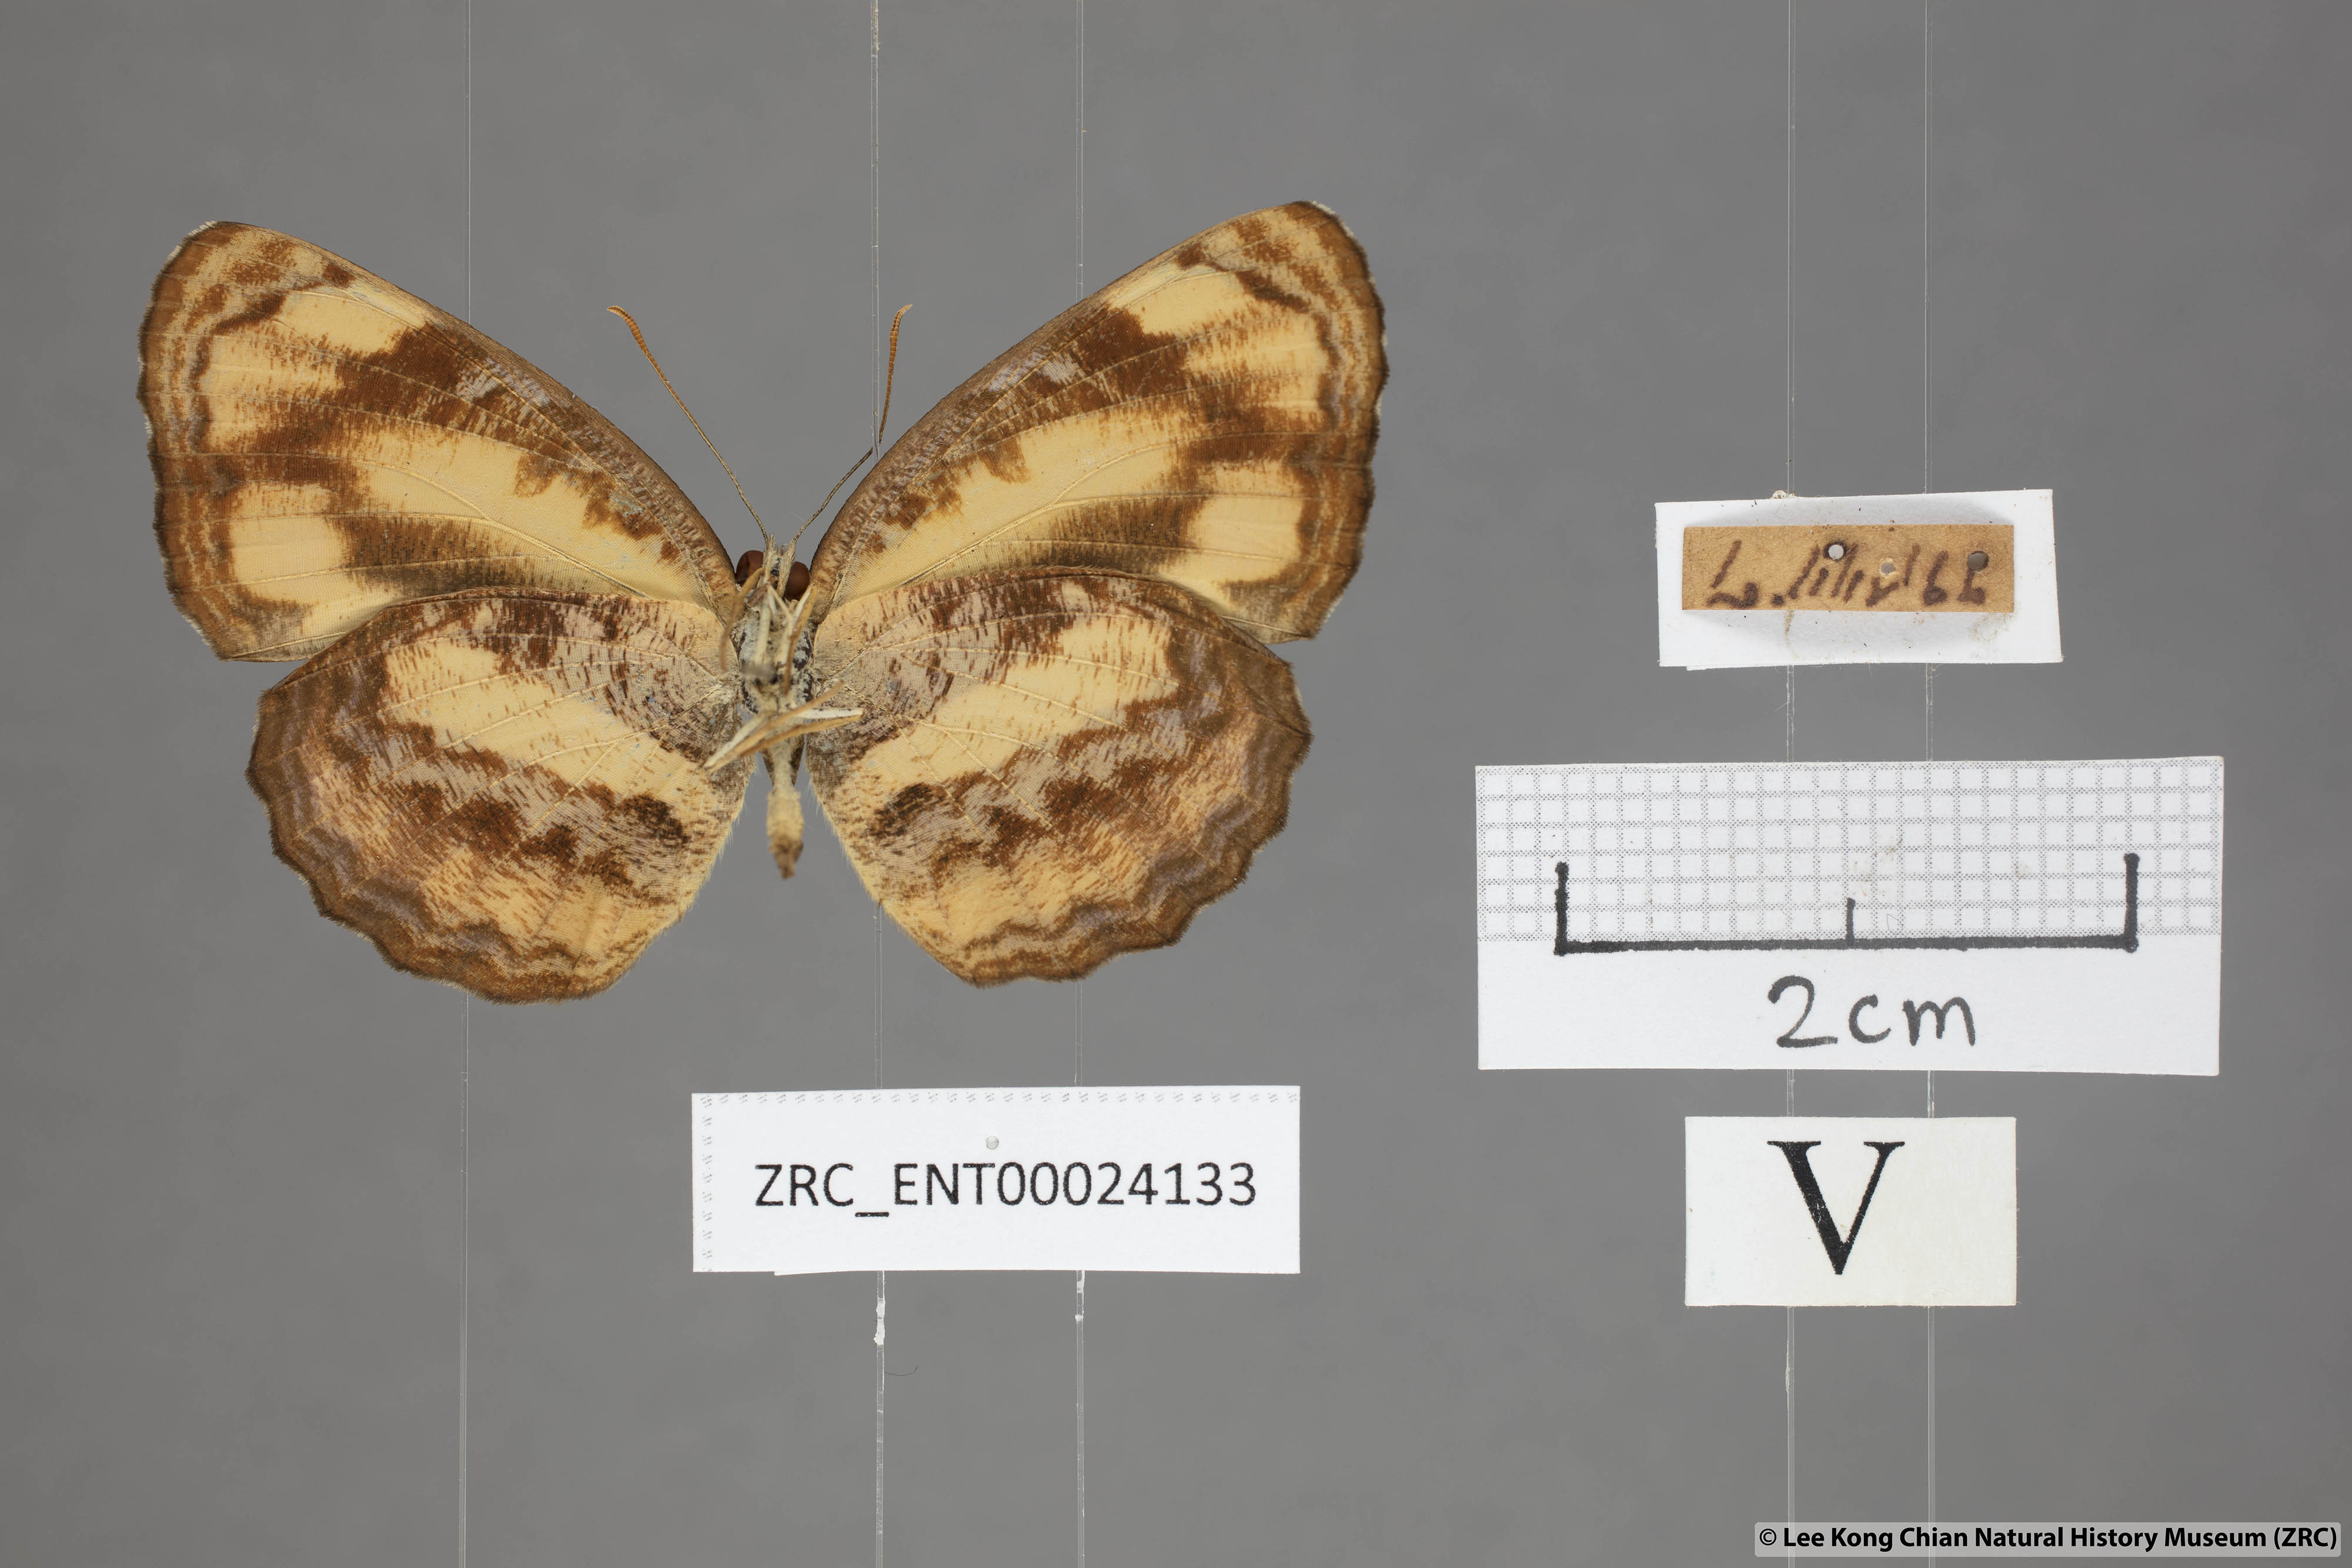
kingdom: Animalia
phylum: Arthropoda
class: Insecta
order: Lepidoptera
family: Nymphalidae
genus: Pantoporia
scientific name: Pantoporia hordonia
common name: Common lascar
